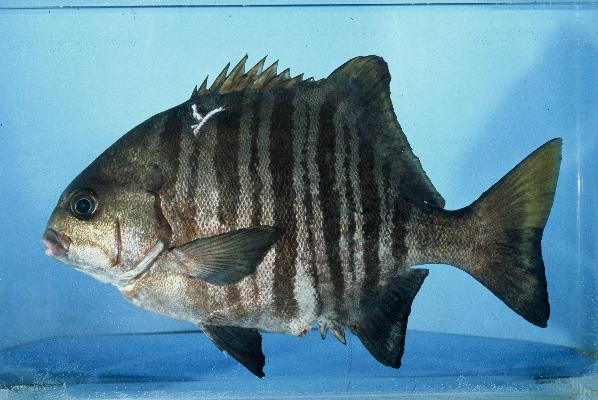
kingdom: Animalia
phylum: Chordata
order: Perciformes
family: Dichistiidae
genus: Dichistius
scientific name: Dichistius multifasciatus
